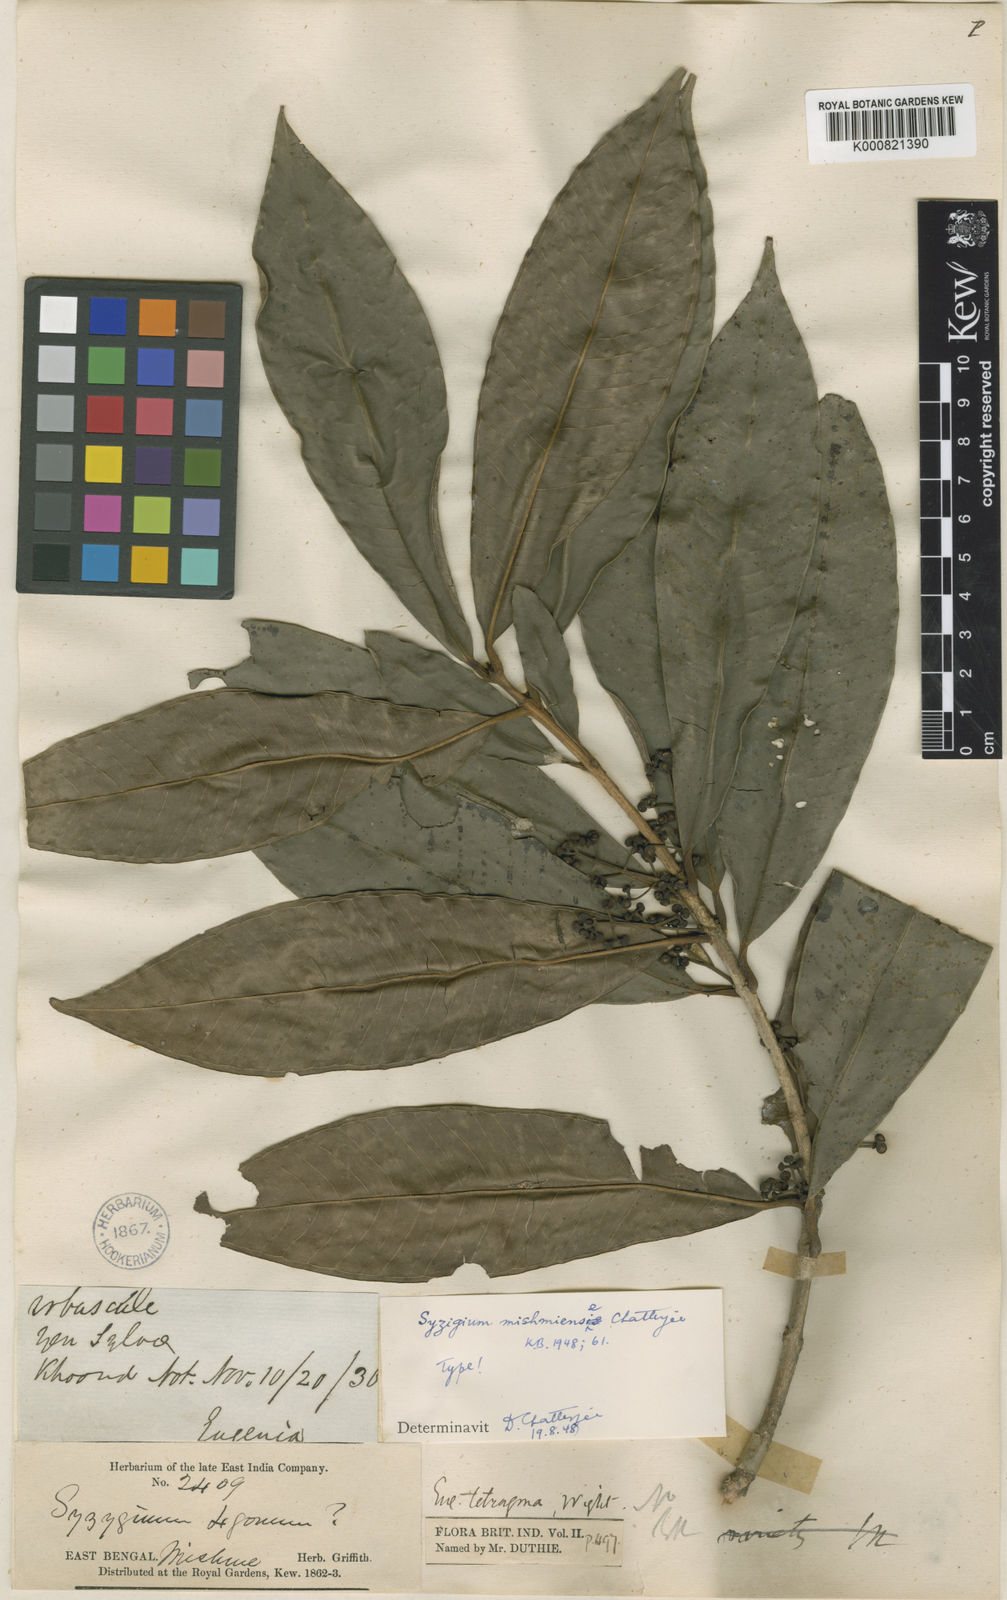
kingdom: Plantae
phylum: Tracheophyta
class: Magnoliopsida
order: Myrtales
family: Myrtaceae
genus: Syzygium
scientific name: Syzygium mishmiense
